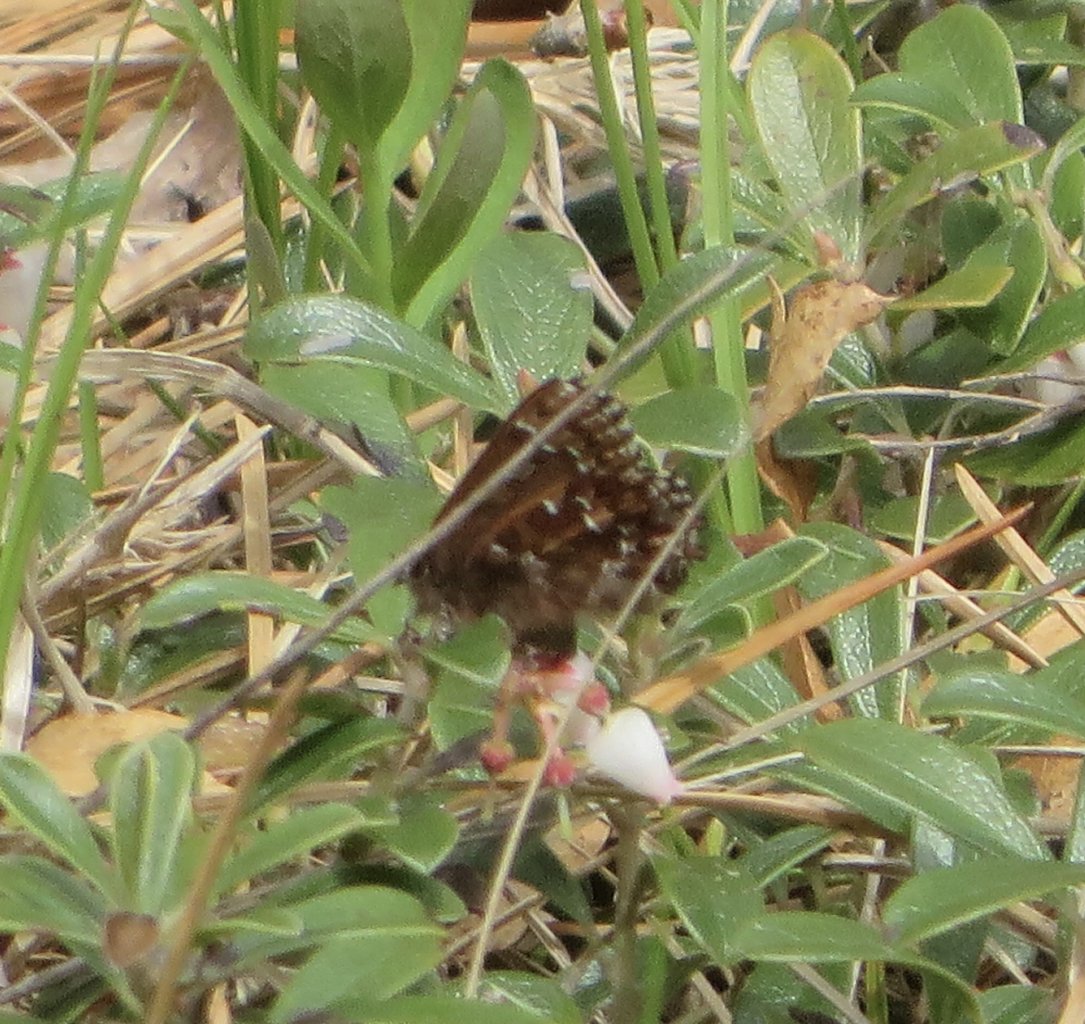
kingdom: Animalia
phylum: Arthropoda
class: Insecta
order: Lepidoptera
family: Lycaenidae
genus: Incisalia
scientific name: Incisalia niphon
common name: Eastern Pine Elfin
